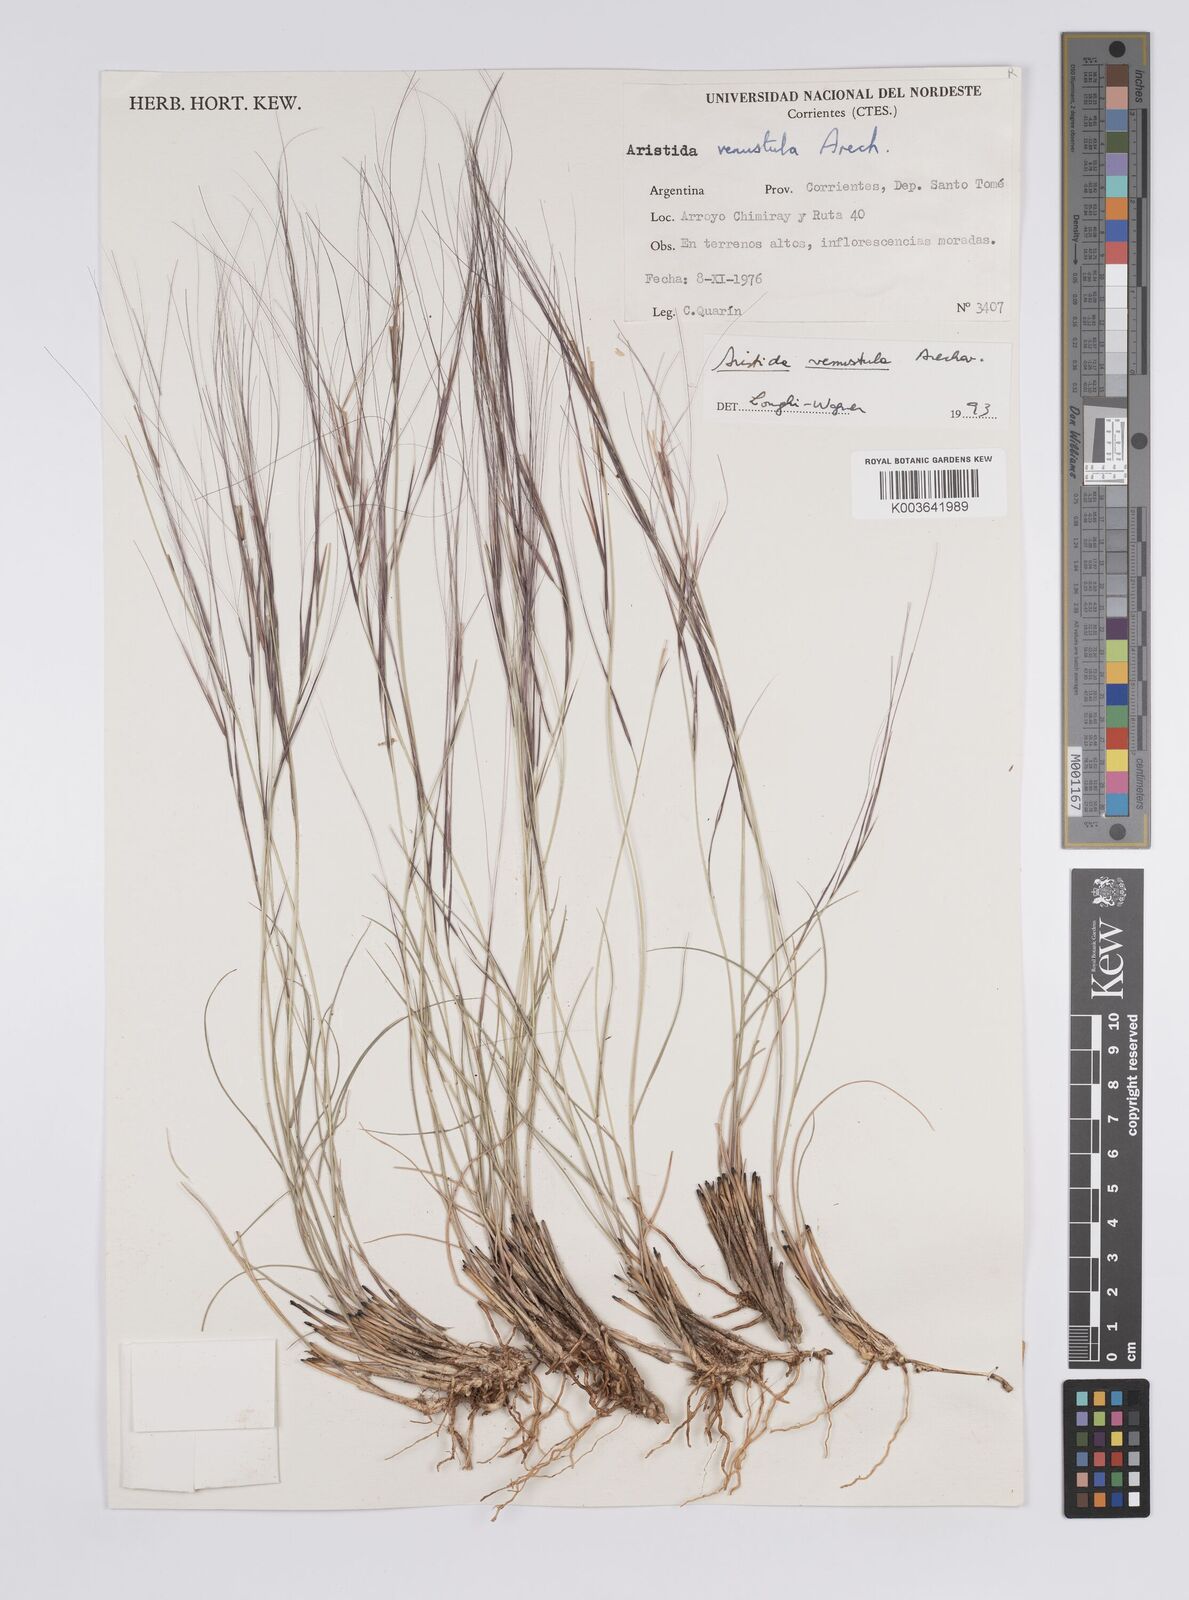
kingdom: Plantae
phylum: Tracheophyta
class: Liliopsida
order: Poales
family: Poaceae
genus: Aristida
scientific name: Aristida venustula
